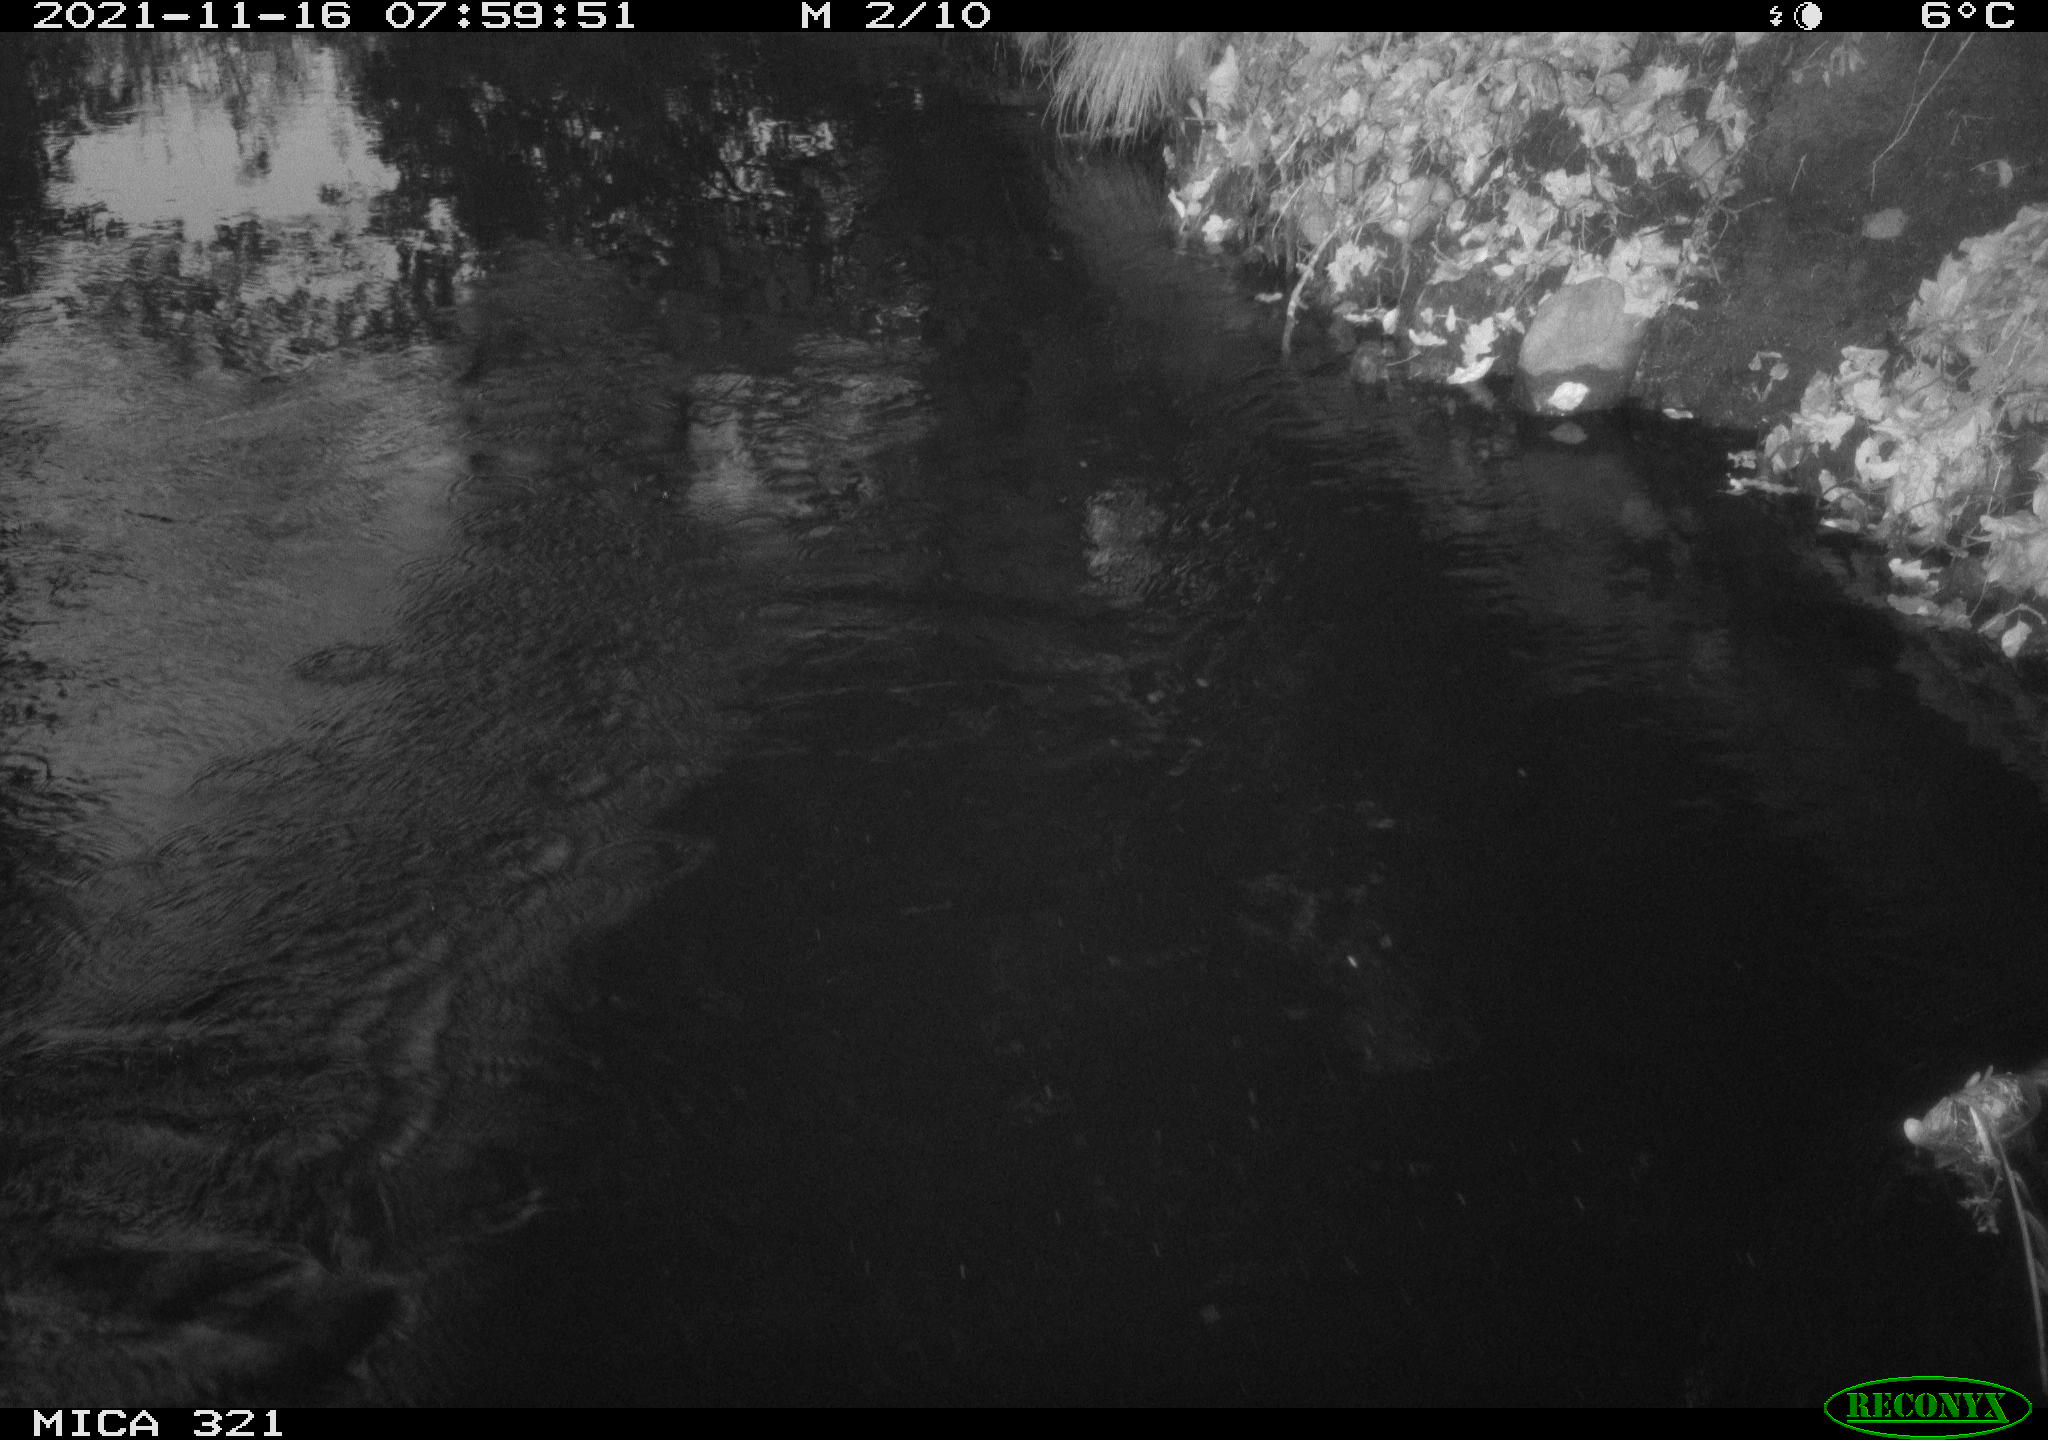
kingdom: Animalia
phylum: Chordata
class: Aves
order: Pelecaniformes
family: Ardeidae
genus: Ardea
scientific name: Ardea cinerea
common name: Grey heron
